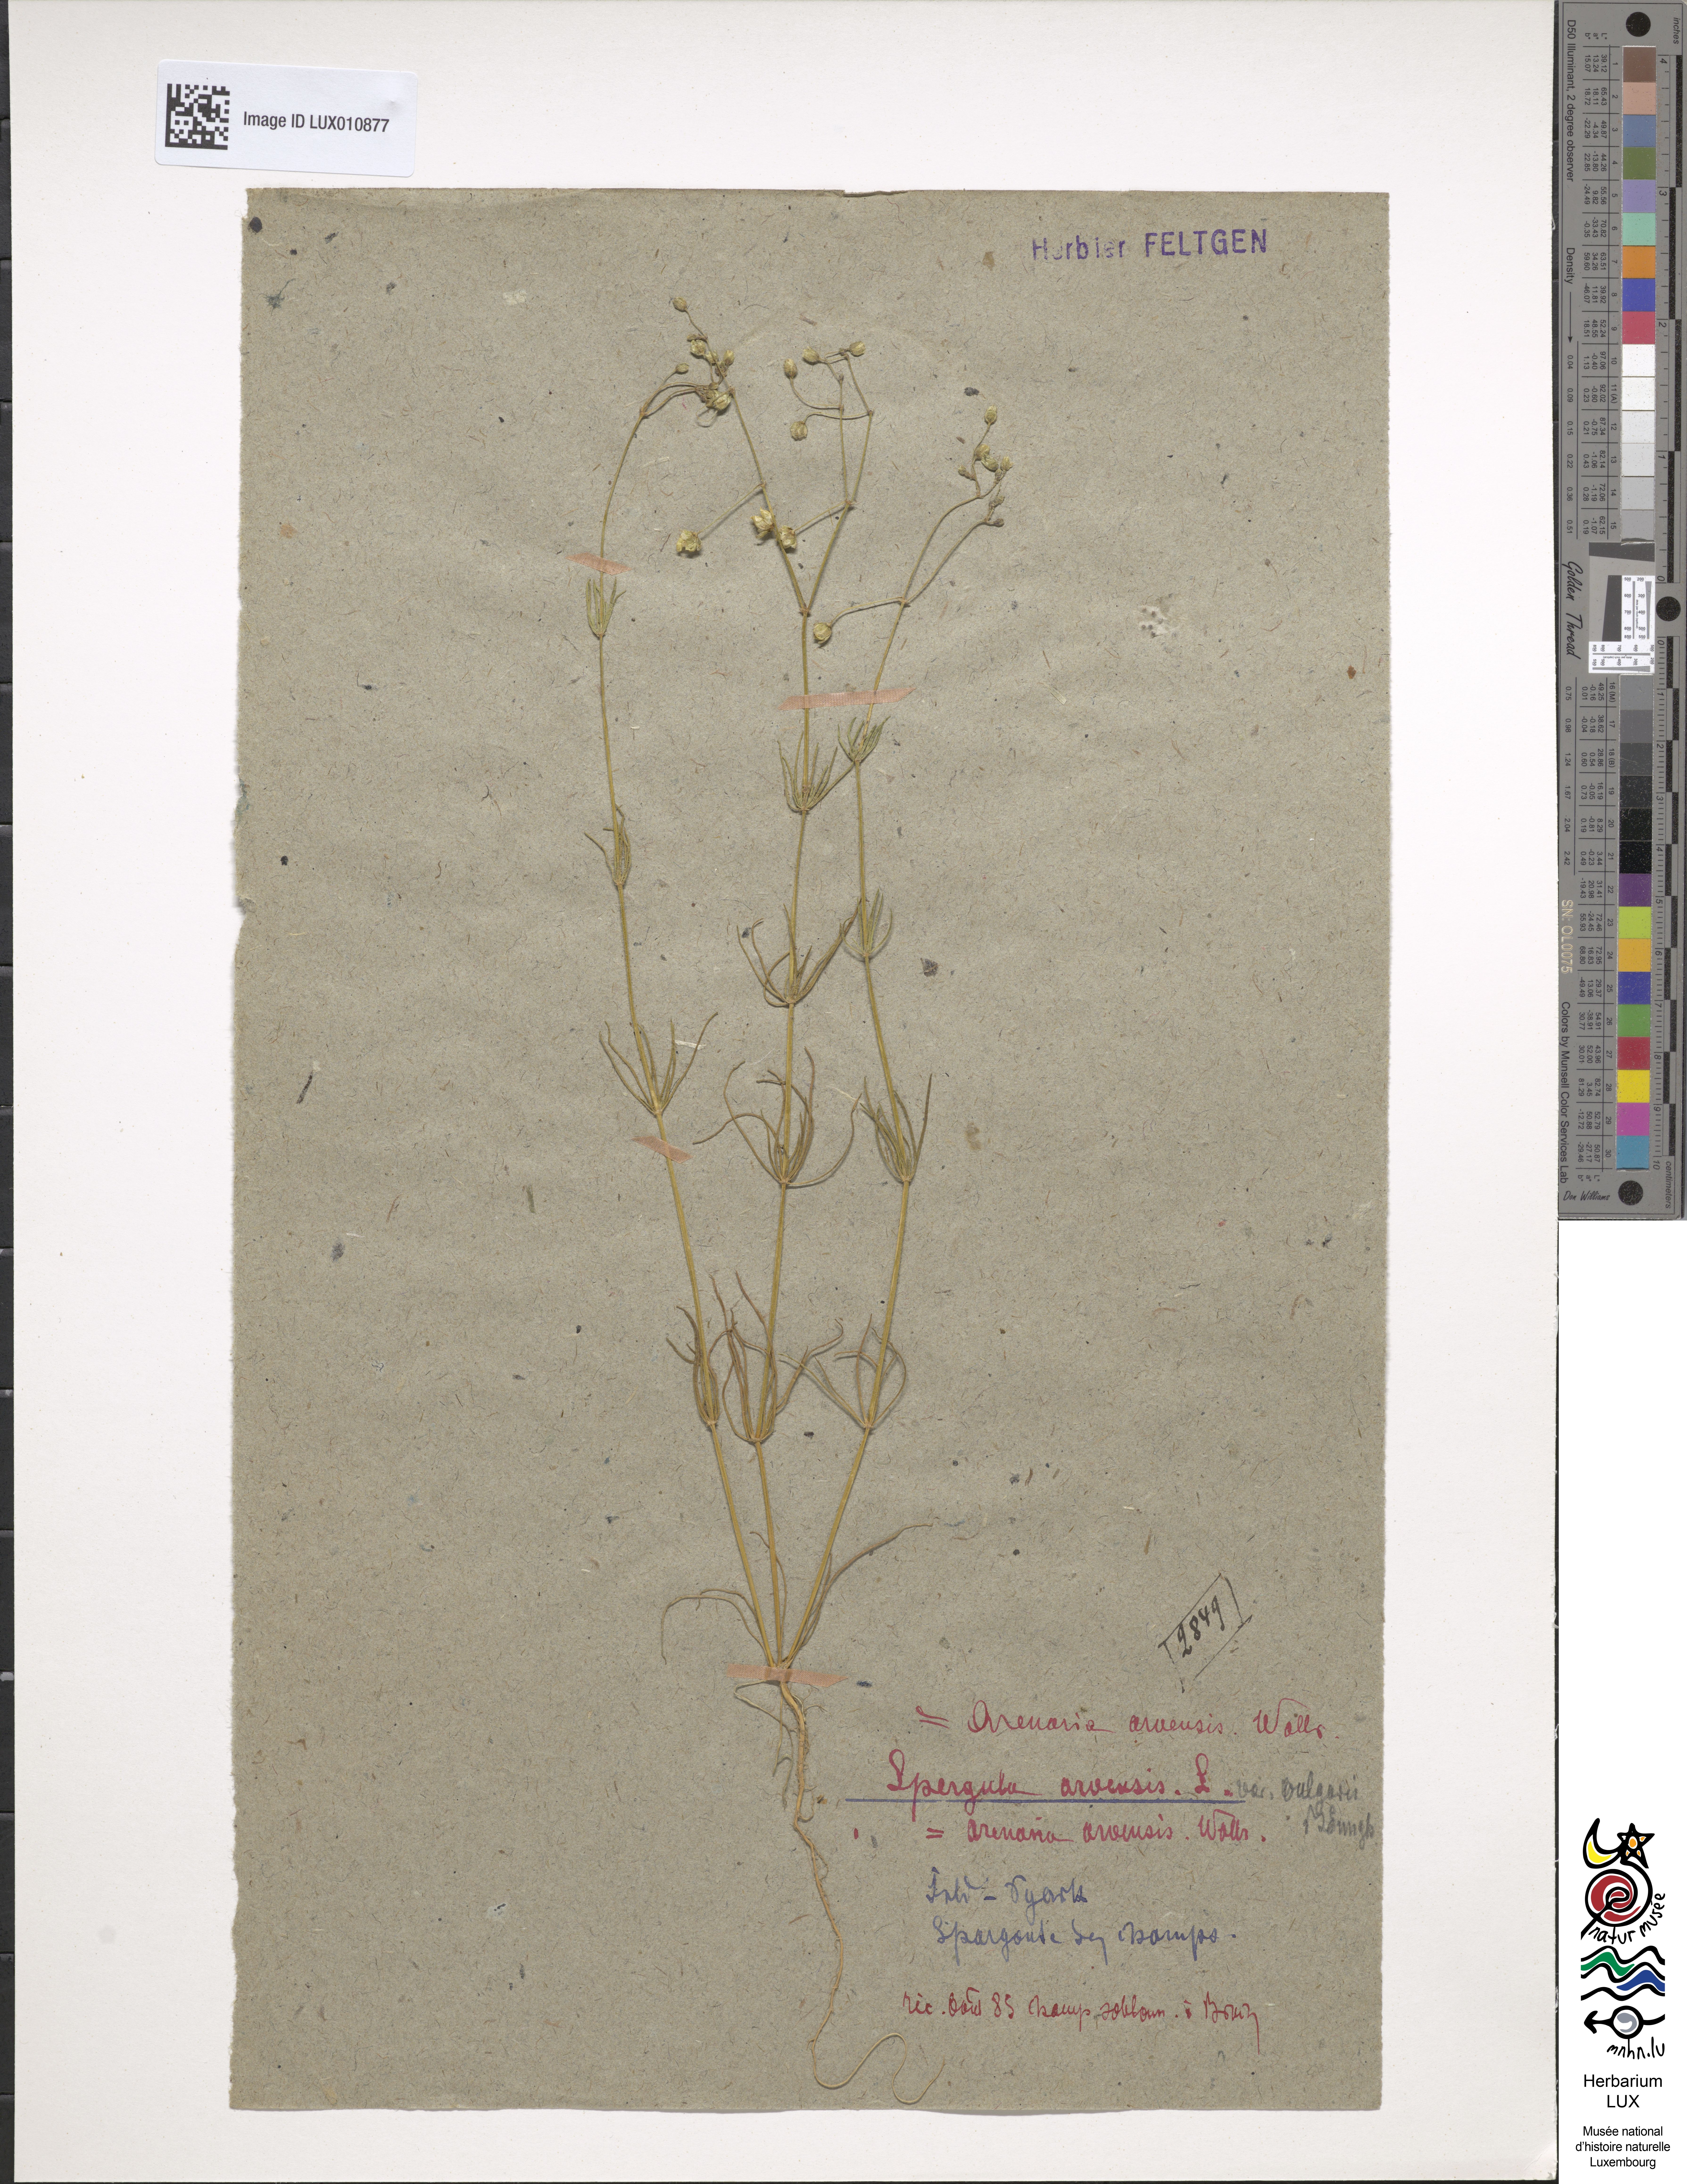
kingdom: Plantae
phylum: Tracheophyta
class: Magnoliopsida
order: Caryophyllales
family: Caryophyllaceae
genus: Spergula
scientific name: Spergula arvensis
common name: Corn spurrey
